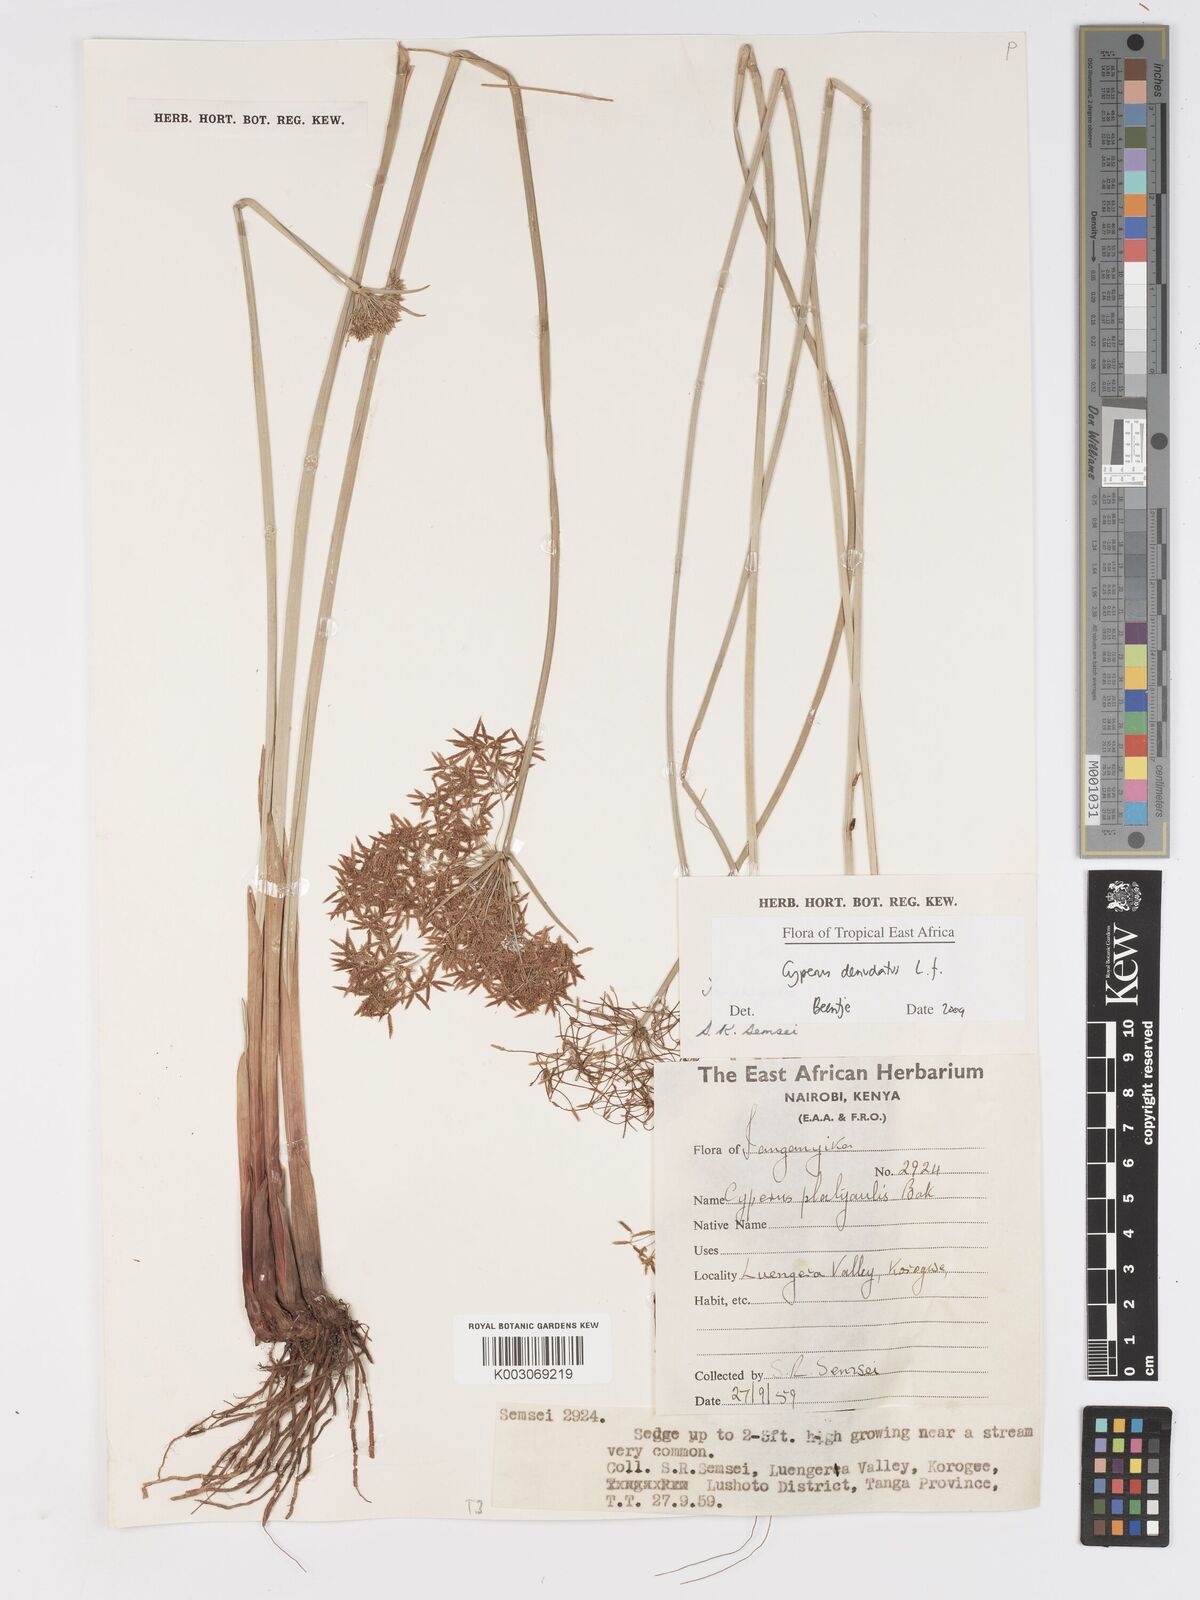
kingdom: Plantae
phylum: Tracheophyta
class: Liliopsida
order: Poales
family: Cyperaceae
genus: Cyperus
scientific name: Cyperus denudatus
